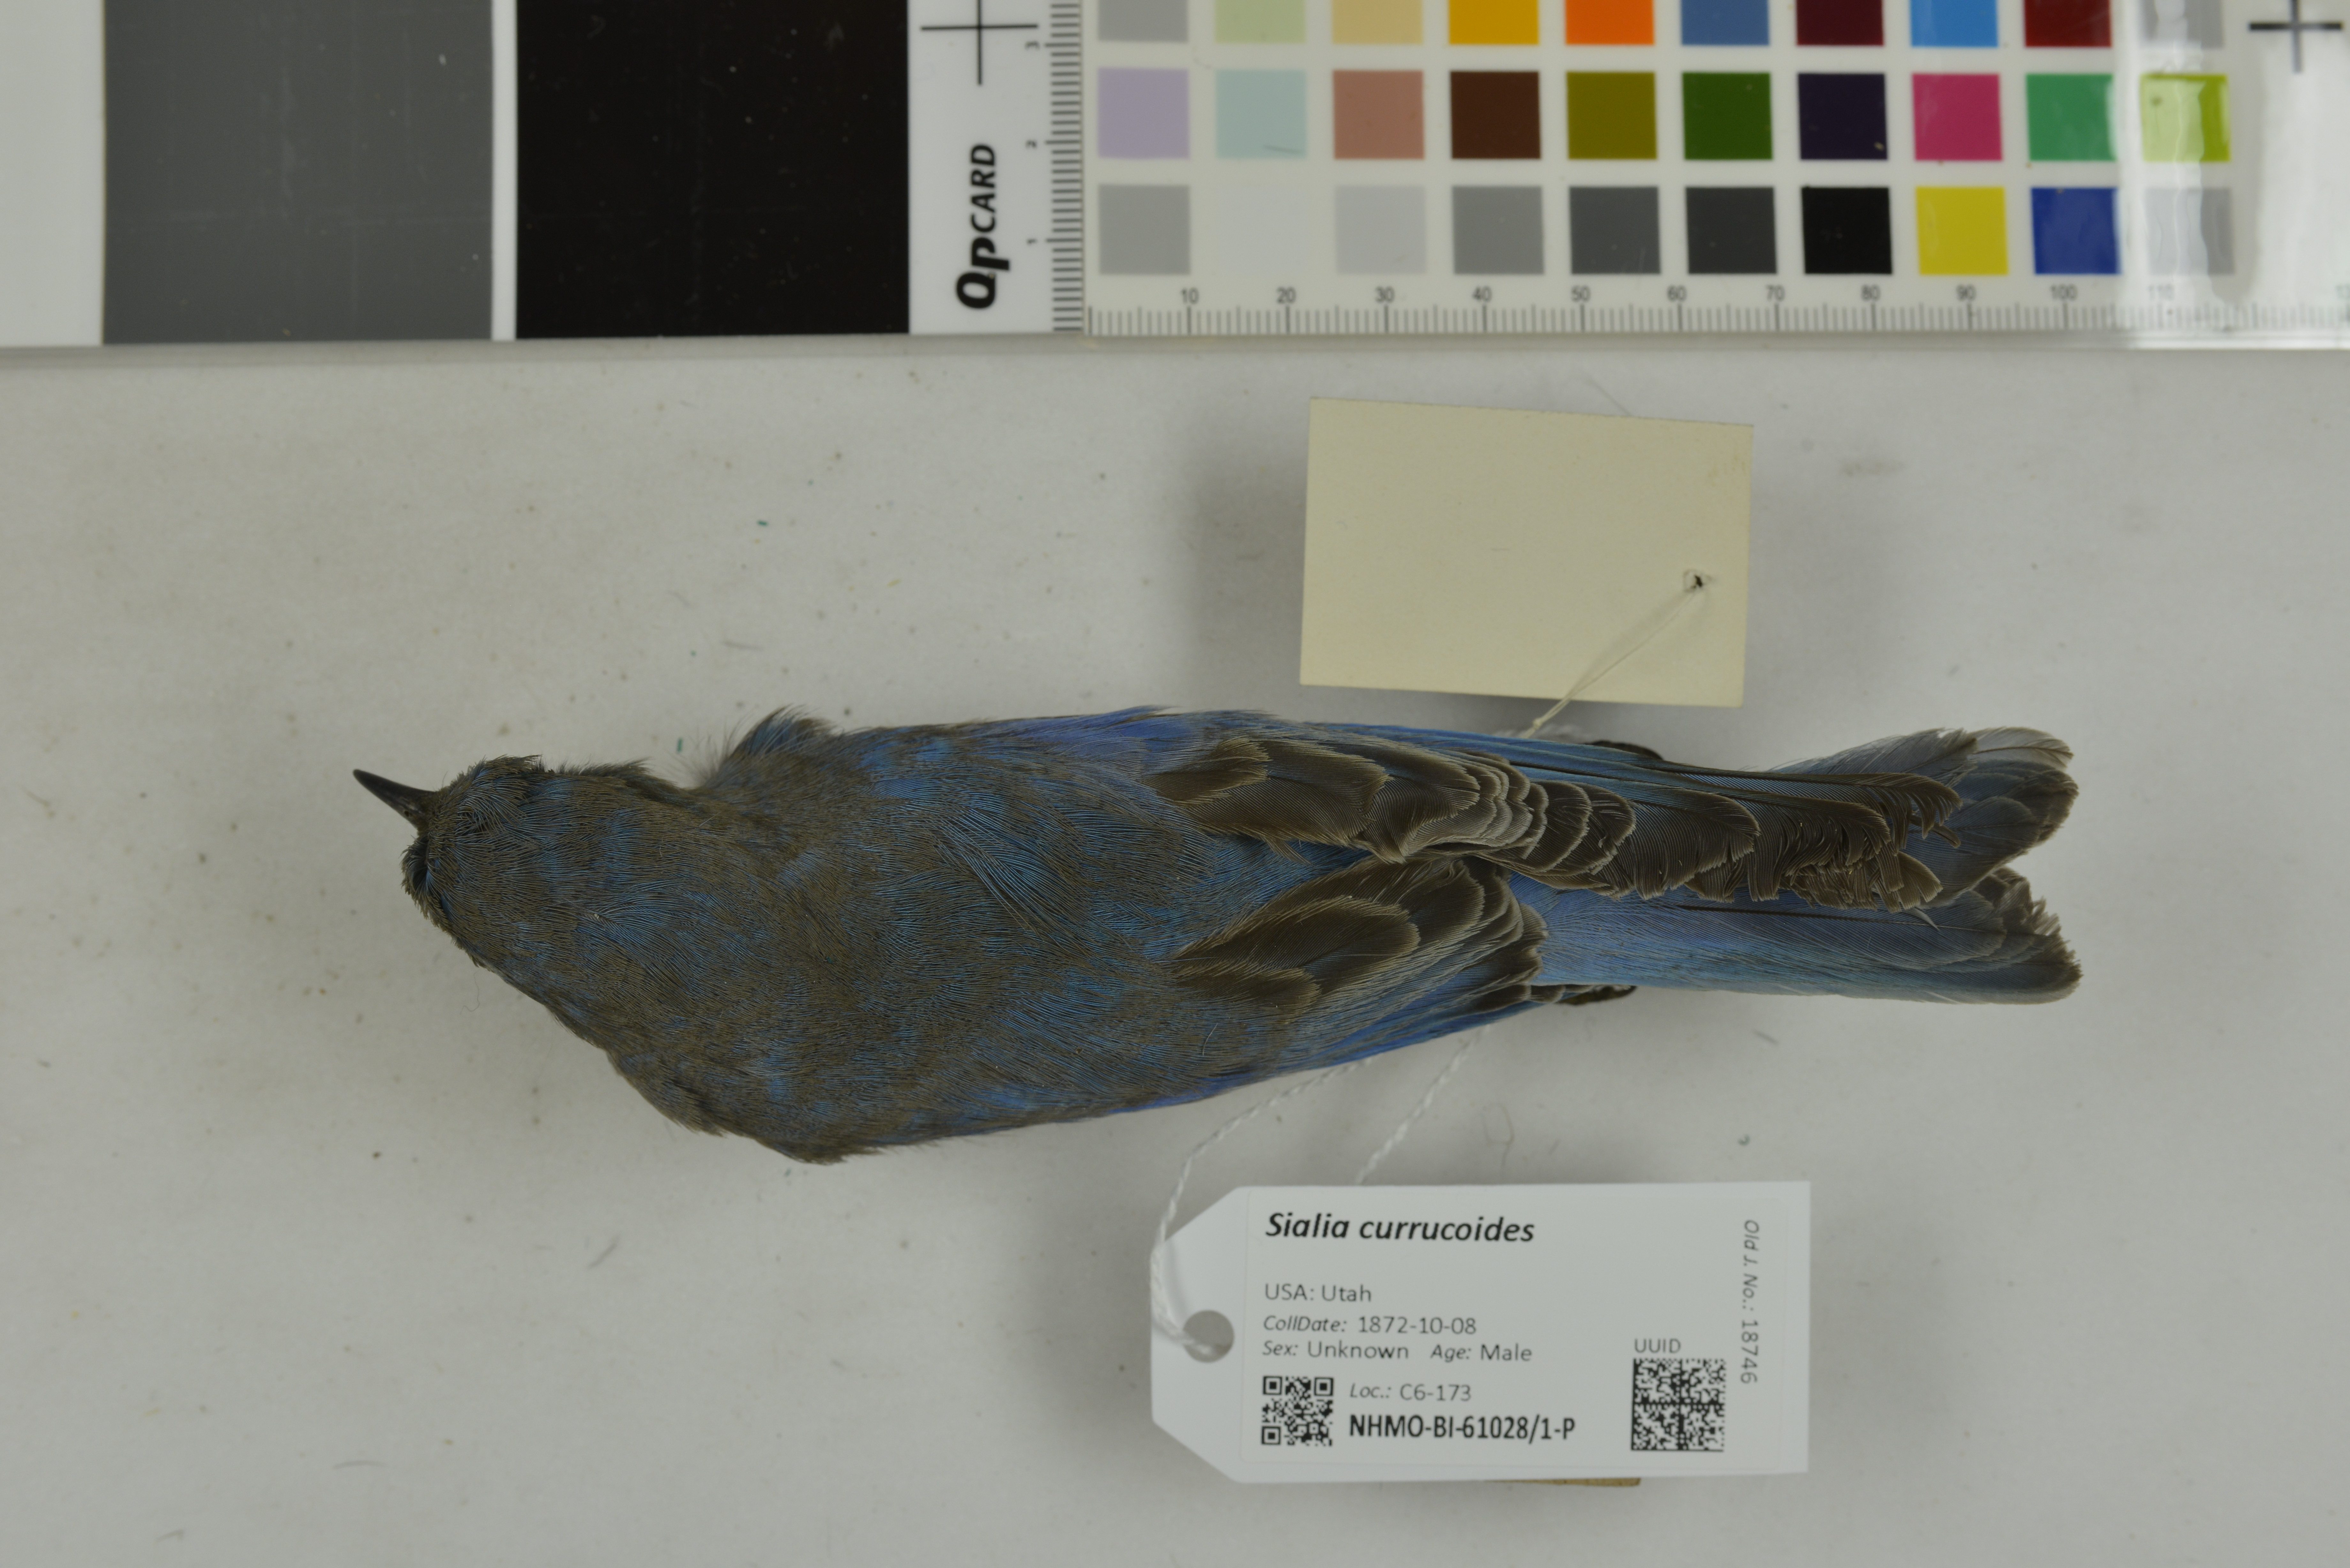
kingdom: Animalia
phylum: Chordata
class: Aves
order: Passeriformes
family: Turdidae
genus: Sialia
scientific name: Sialia currucoides
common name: Mountain bluebird
